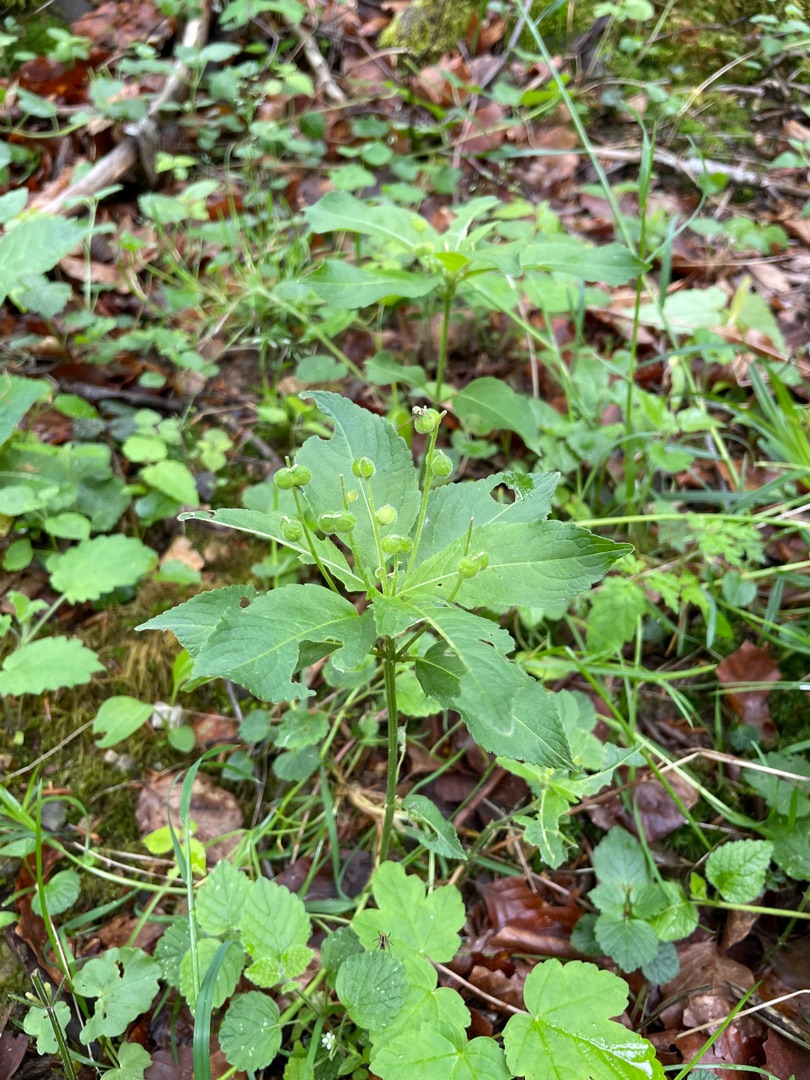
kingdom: Plantae
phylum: Tracheophyta
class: Magnoliopsida
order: Malpighiales
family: Euphorbiaceae
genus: Mercurialis
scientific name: Mercurialis perennis
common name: Almindelig bingelurt
